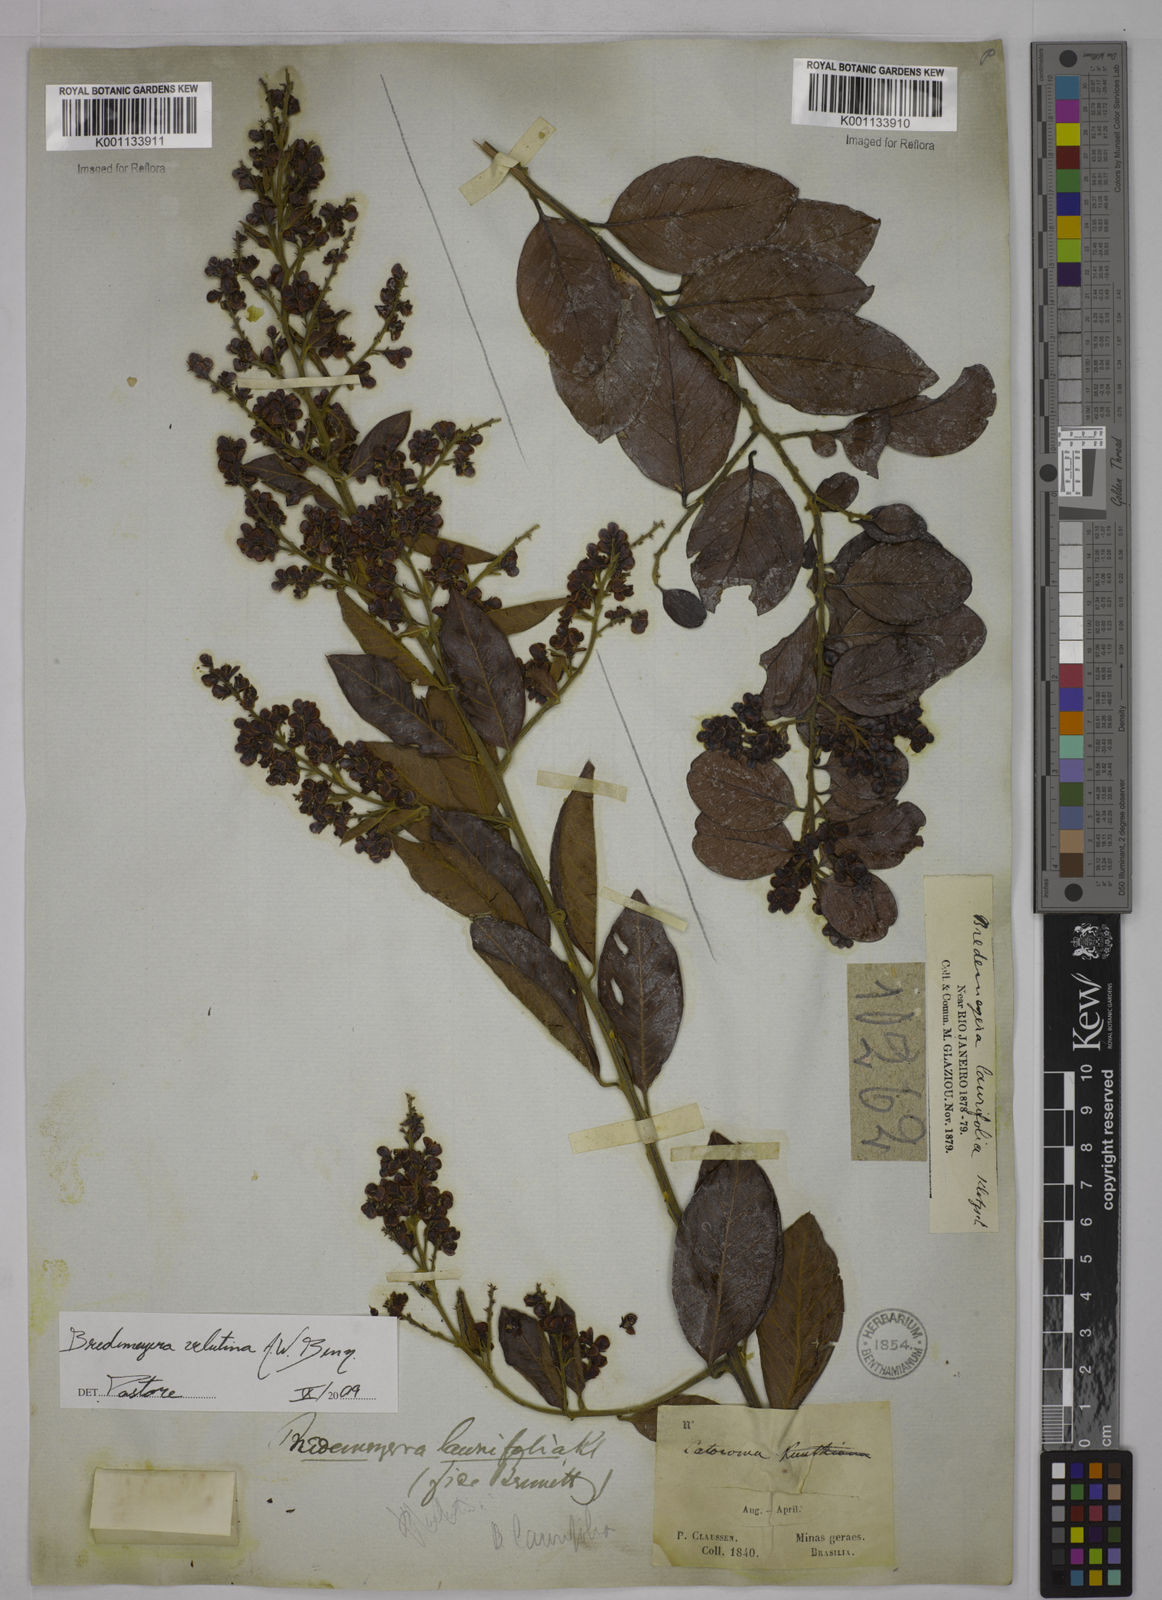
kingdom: Plantae
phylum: Tracheophyta
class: Magnoliopsida
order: Fabales
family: Polygalaceae
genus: Bredemeyera
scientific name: Bredemeyera hebeclada
